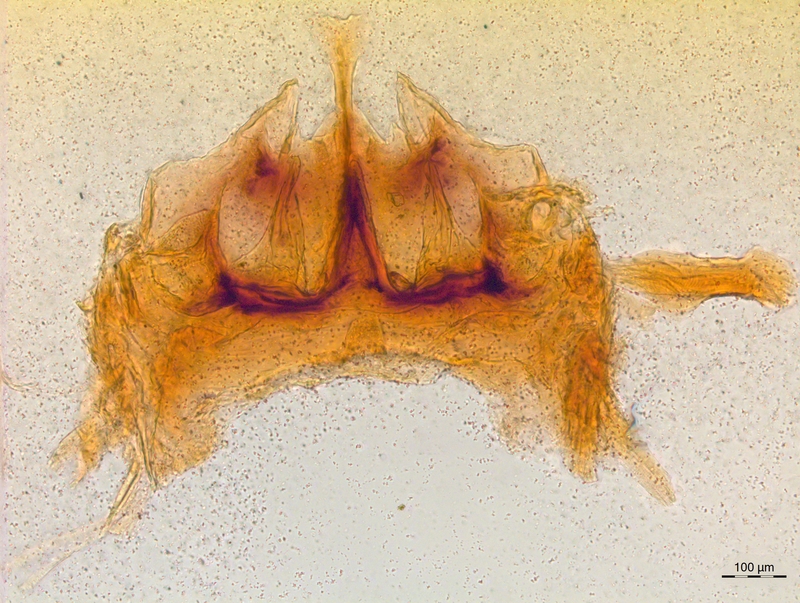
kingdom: Animalia
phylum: Arthropoda
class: Diplopoda
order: Chordeumatida
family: Craspedosomatidae
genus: Craspedosoma
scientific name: Craspedosoma rawlinsii
